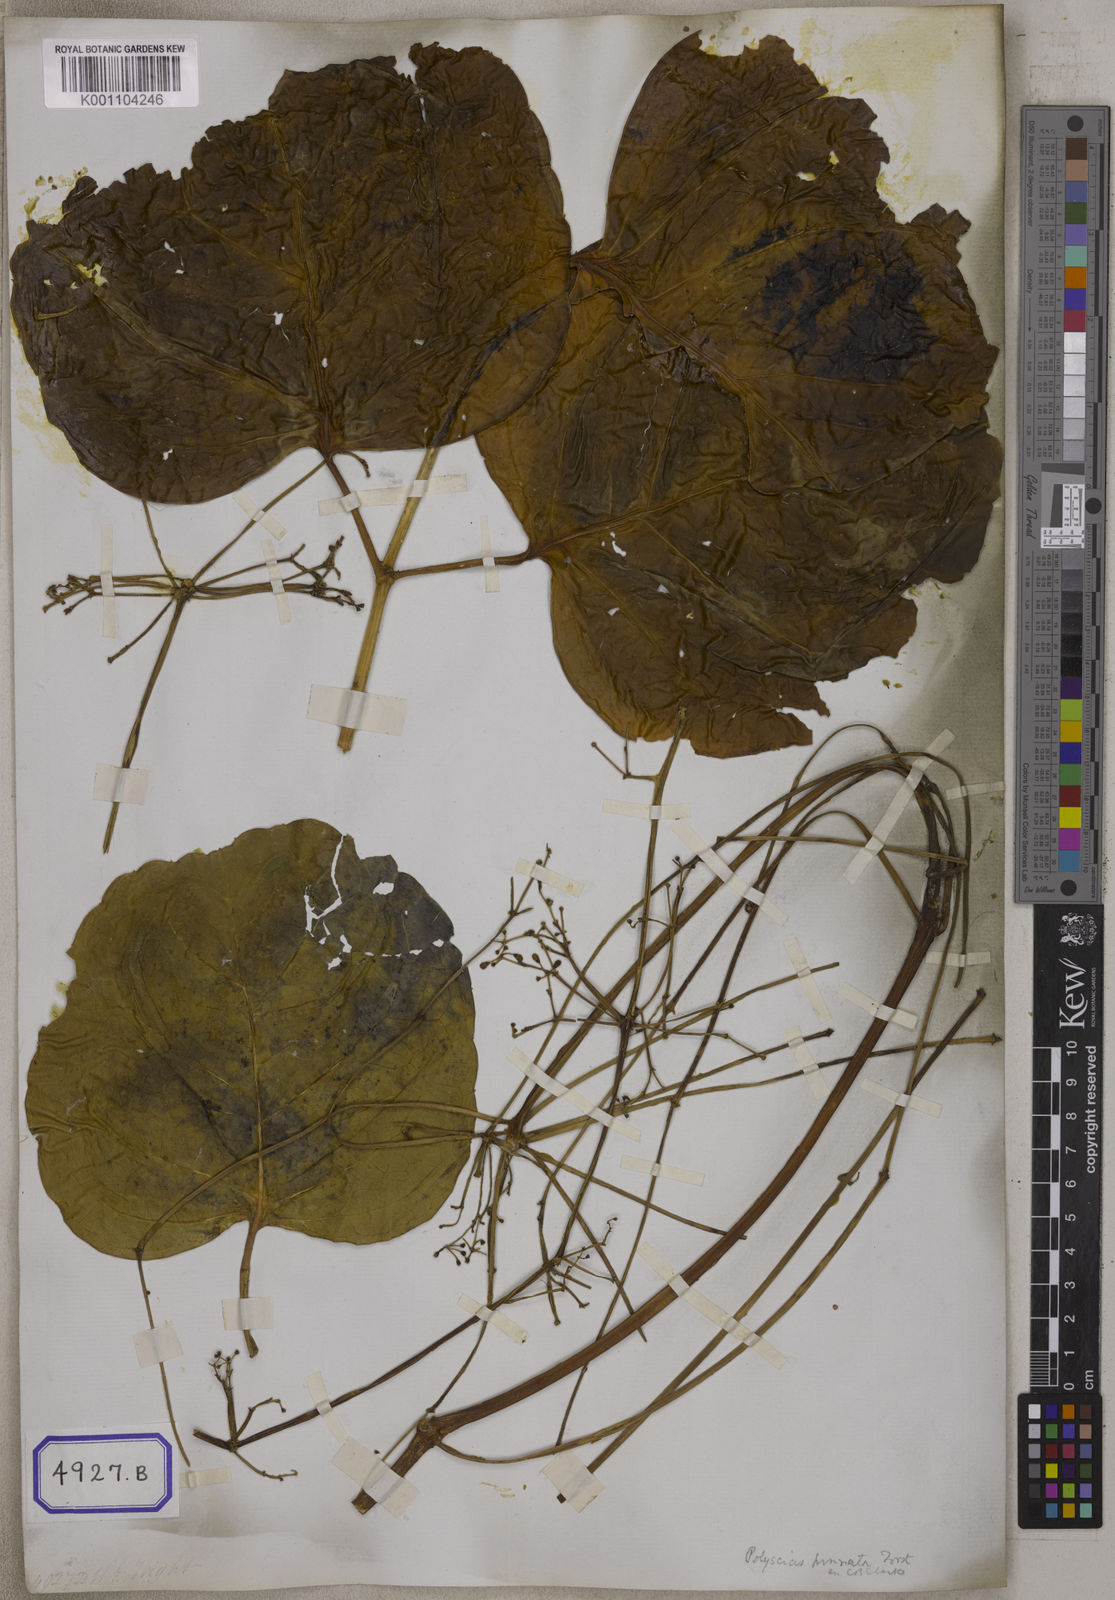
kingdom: Plantae
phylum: Tracheophyta
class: Magnoliopsida
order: Apiales
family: Araliaceae
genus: Panax
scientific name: Panax
